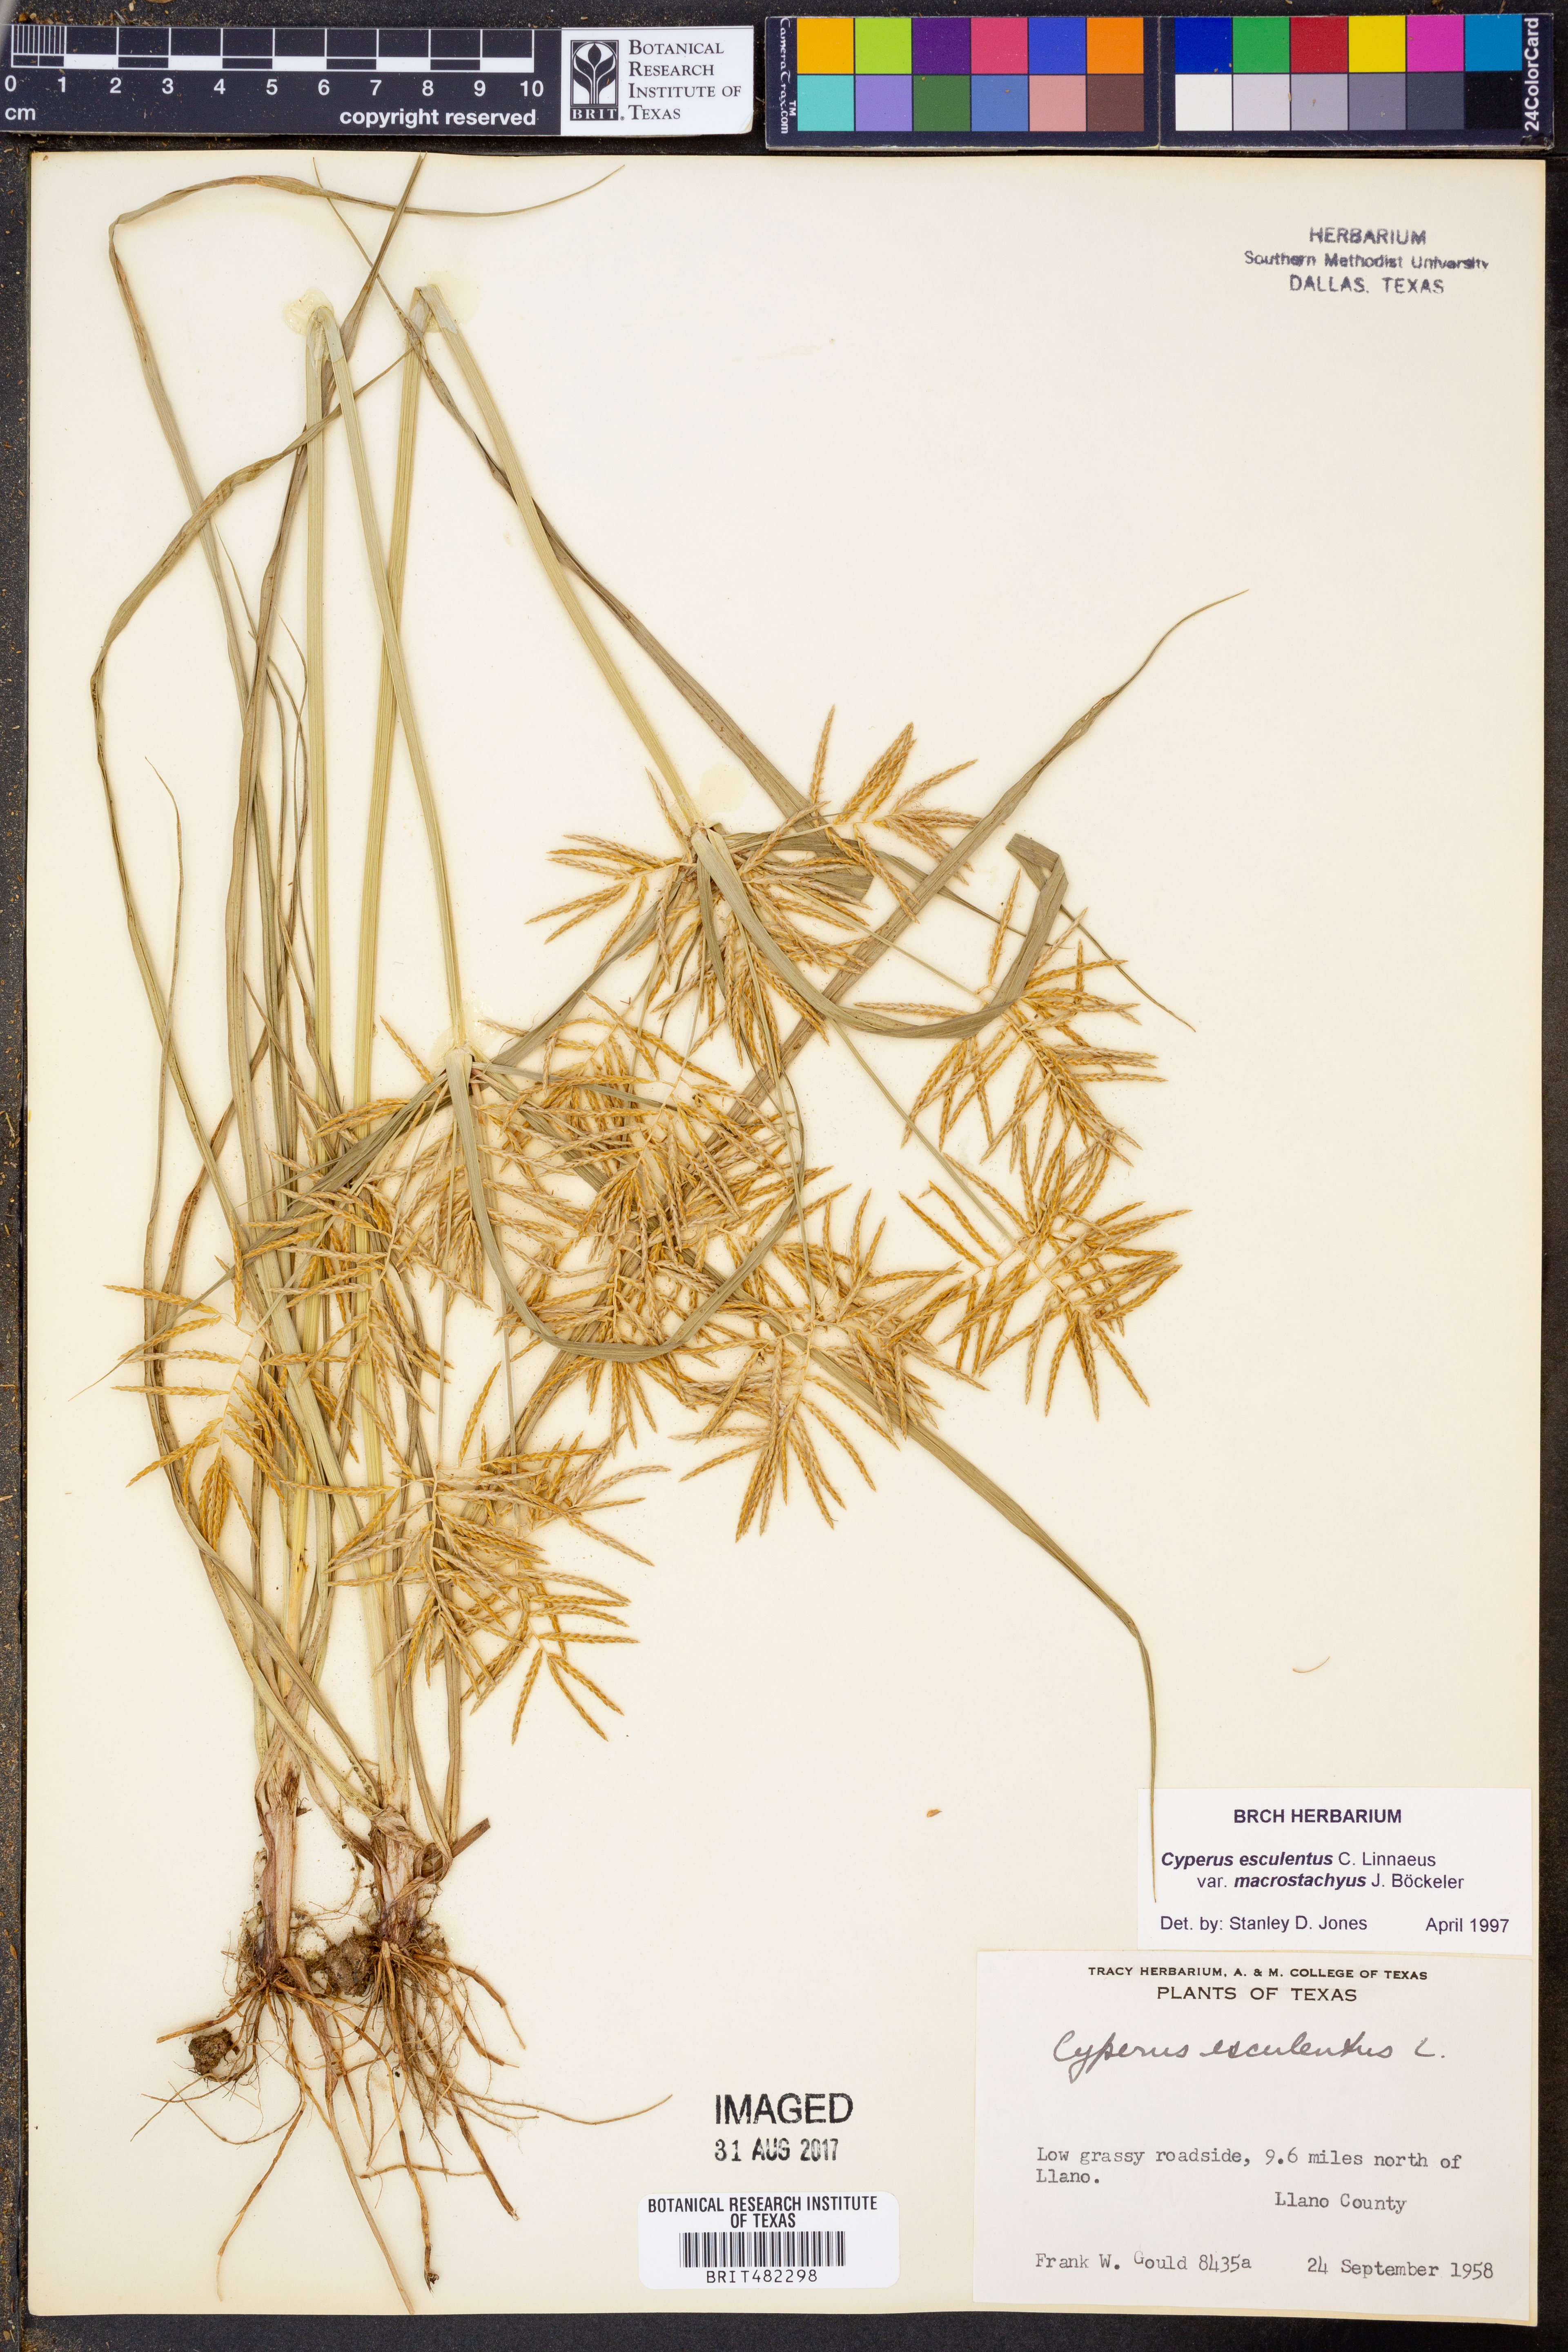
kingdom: Plantae
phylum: Tracheophyta
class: Liliopsida
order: Poales
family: Cyperaceae
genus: Cyperus
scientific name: Cyperus esculentus
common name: Yellow nutsedge
